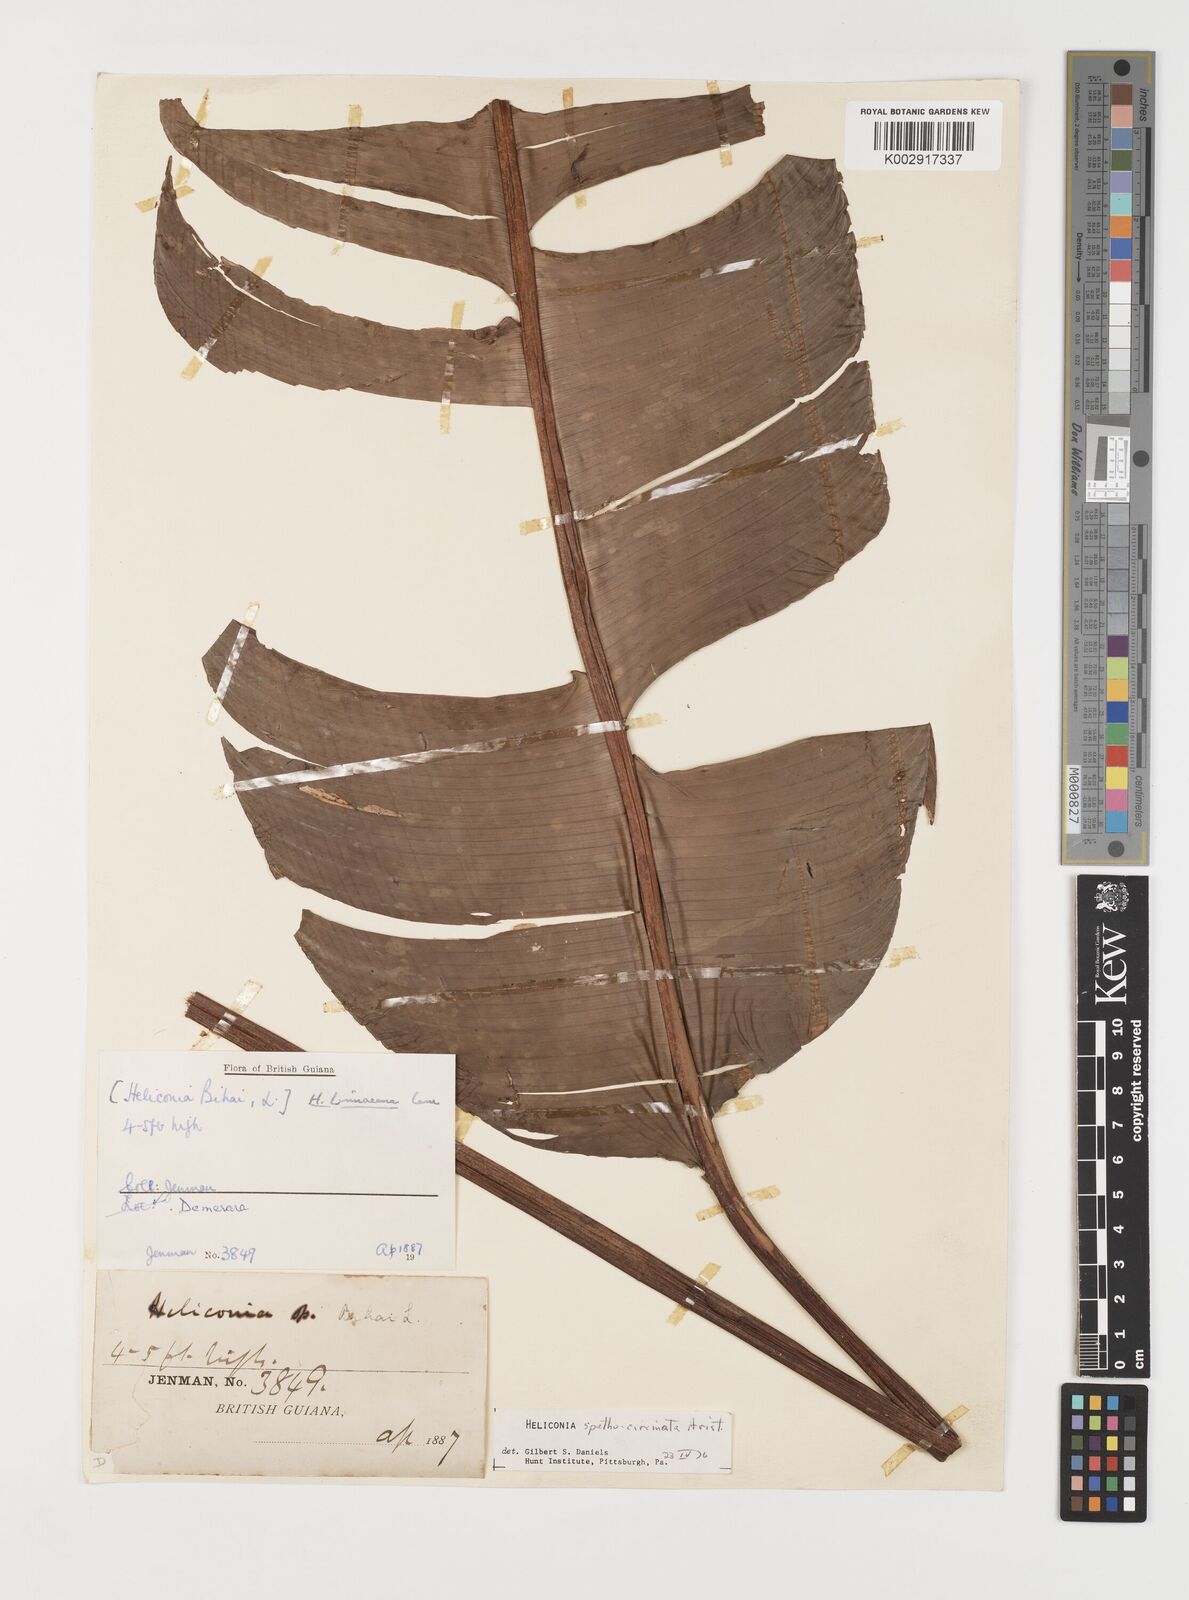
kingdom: Plantae
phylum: Tracheophyta
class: Liliopsida
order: Zingiberales
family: Heliconiaceae
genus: Heliconia
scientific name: Heliconia spathocircinata
